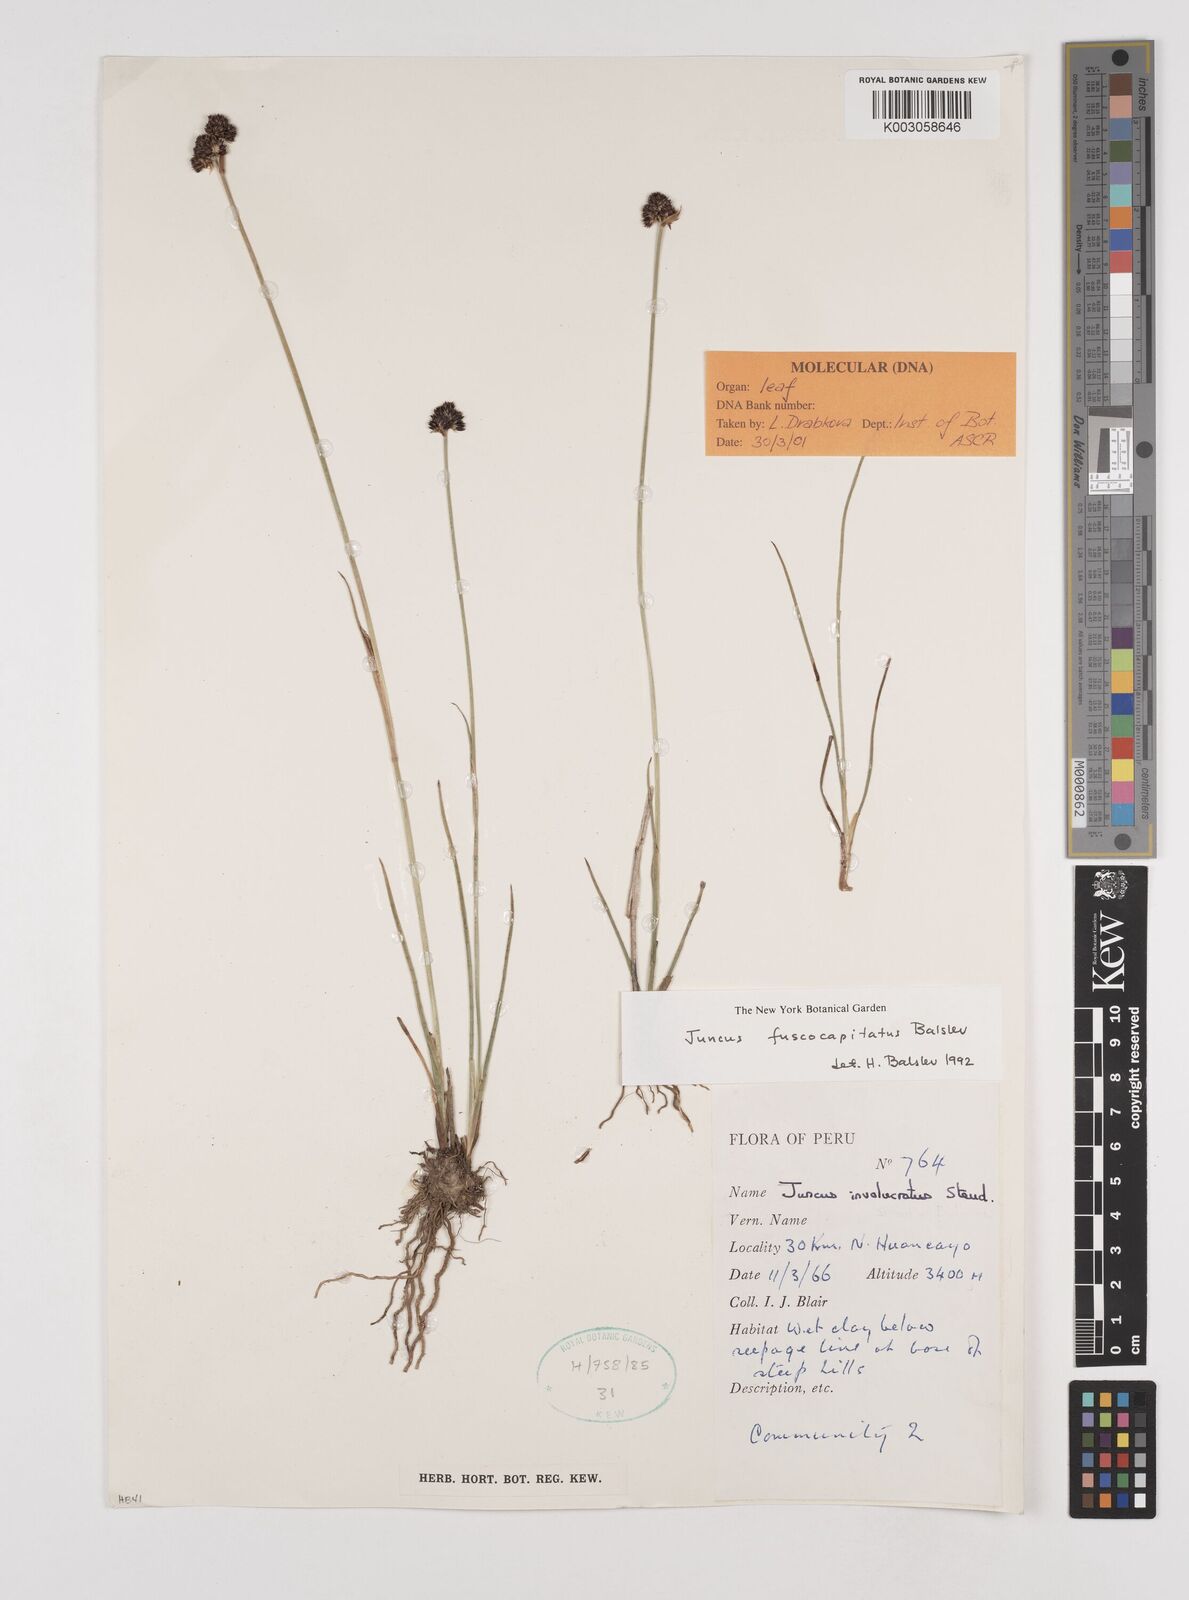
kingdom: Plantae
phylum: Tracheophyta
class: Liliopsida
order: Poales
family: Juncaceae
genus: Juncus
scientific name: Juncus pallescens
